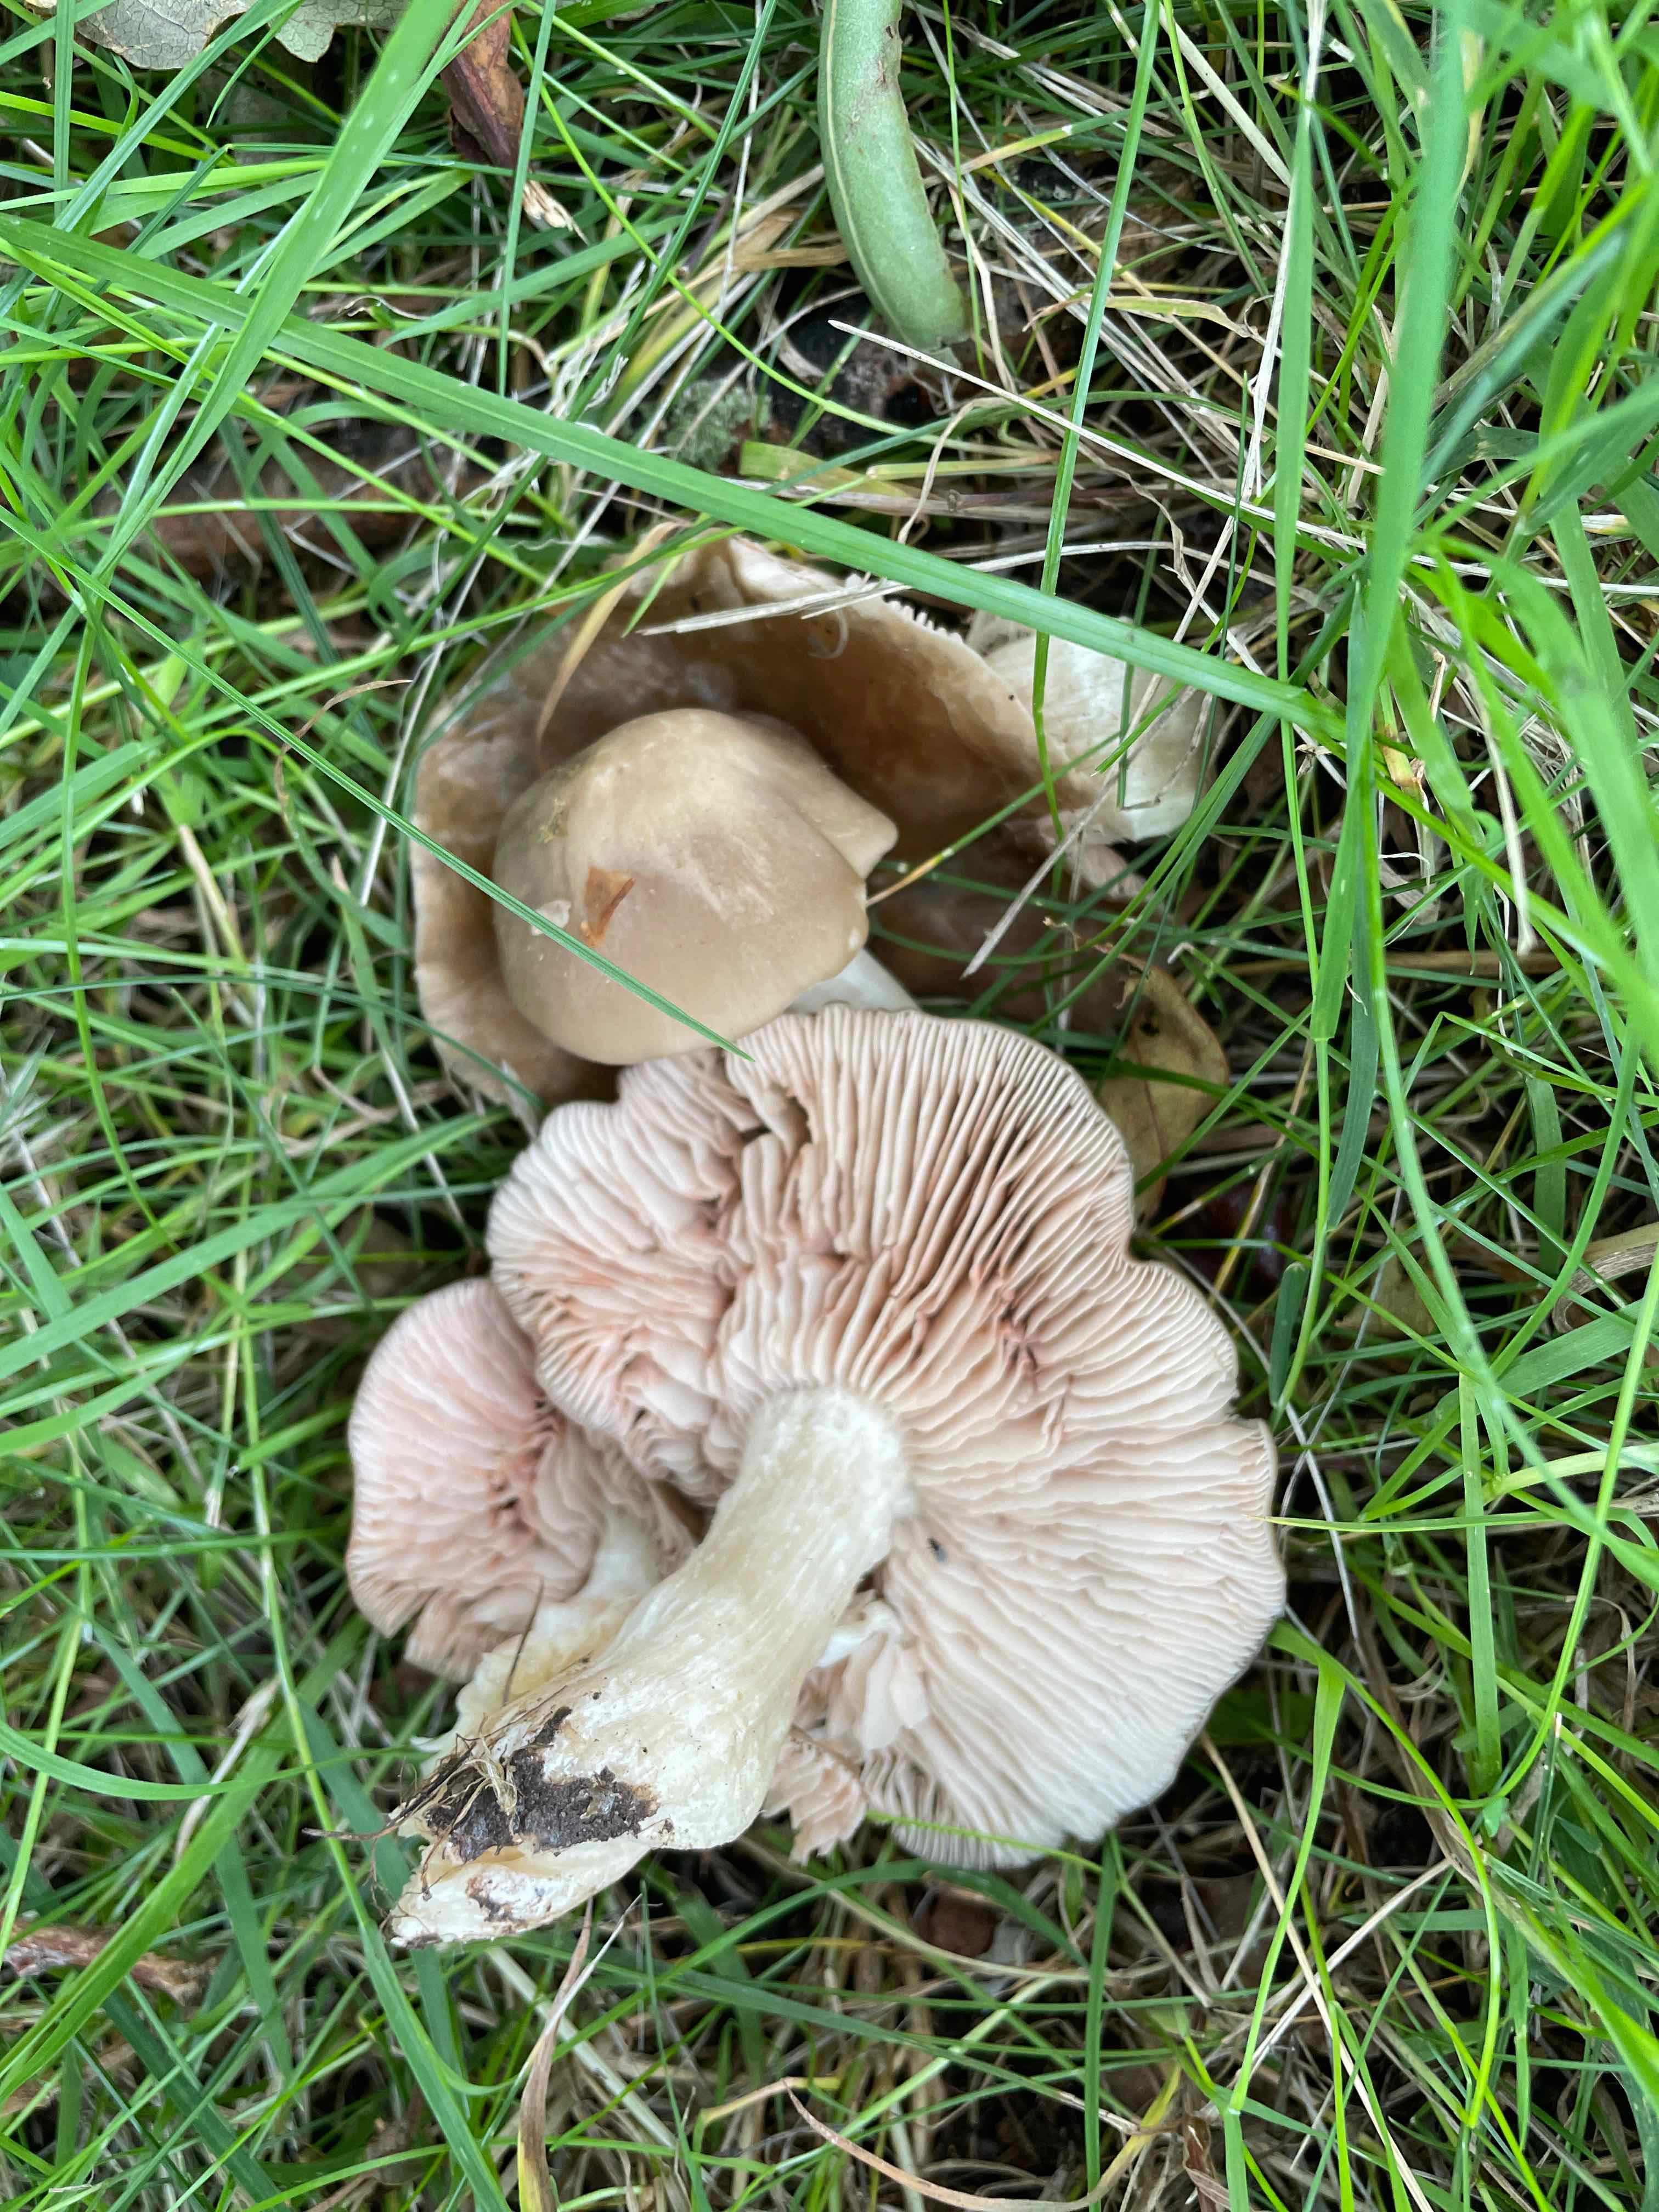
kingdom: Fungi
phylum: Basidiomycota
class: Agaricomycetes
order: Agaricales
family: Entolomataceae
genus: Entoloma
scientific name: Entoloma lividoalbum
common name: lysstokket rødblad
